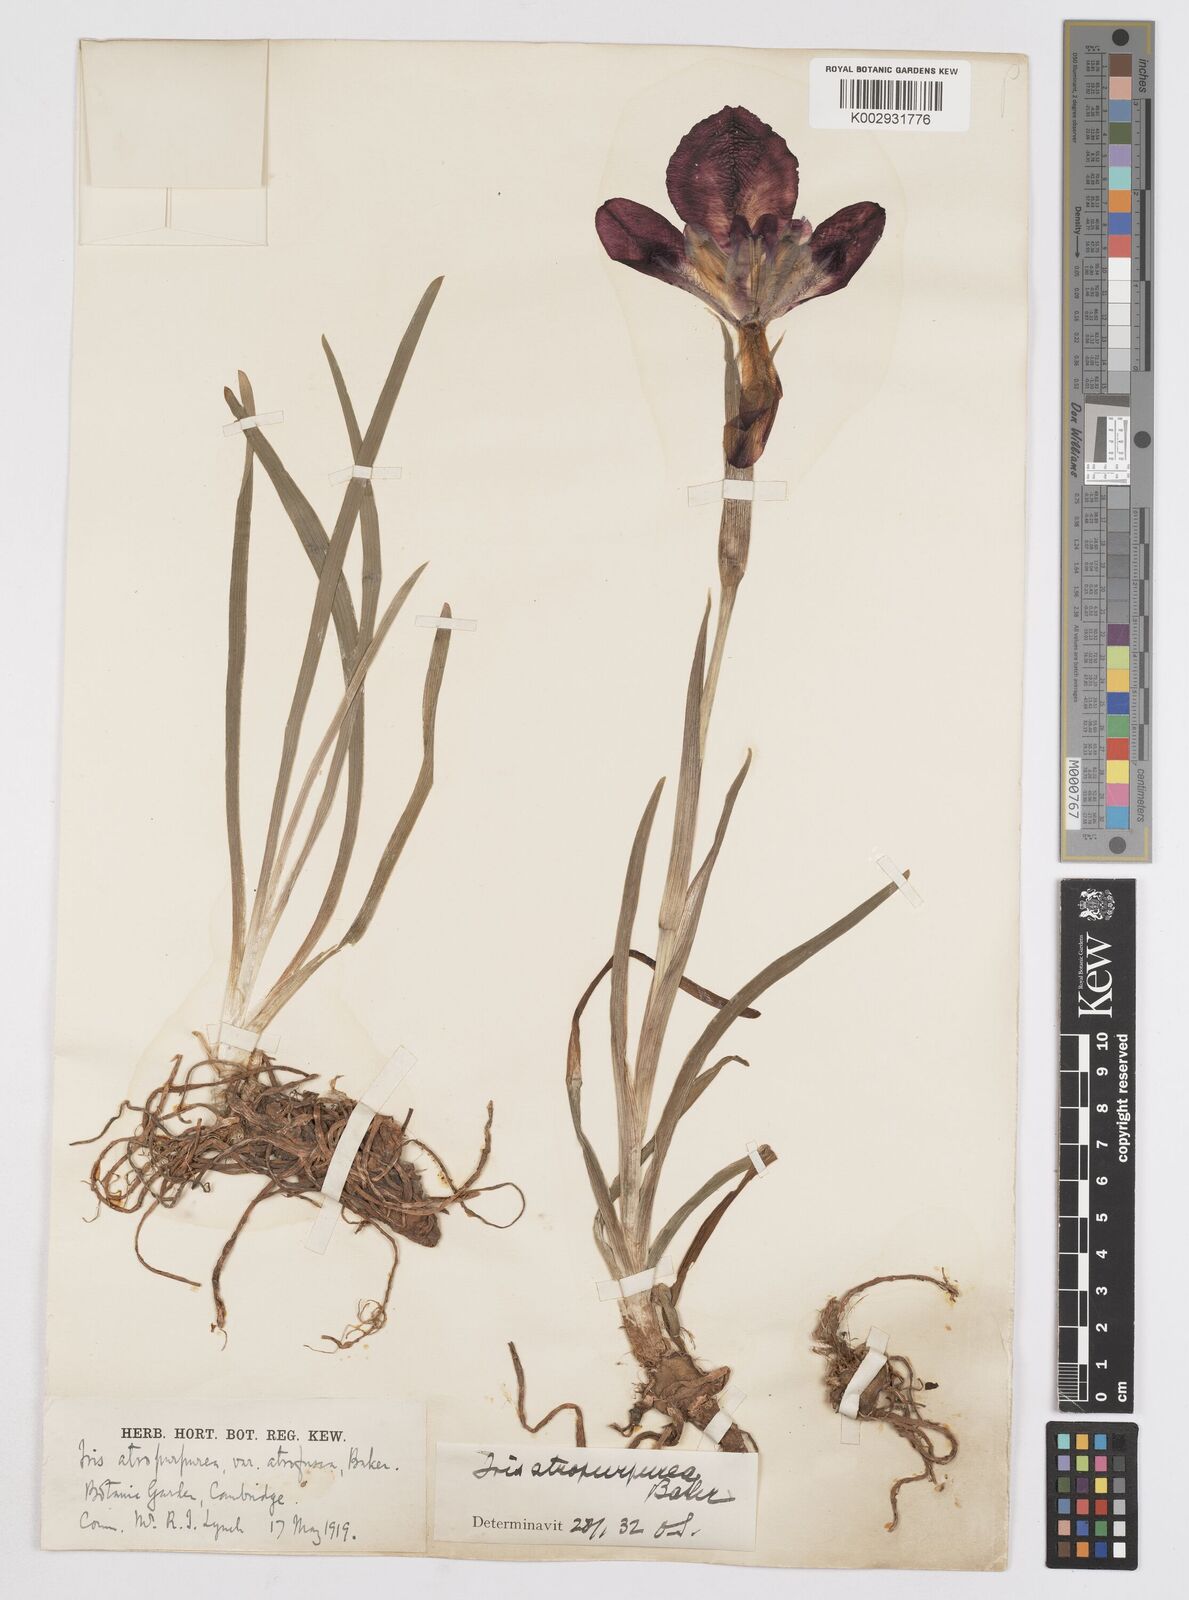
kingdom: Plantae
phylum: Tracheophyta
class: Liliopsida
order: Asparagales
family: Iridaceae
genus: Iris
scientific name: Iris atropurpurea
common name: Coastal iris
